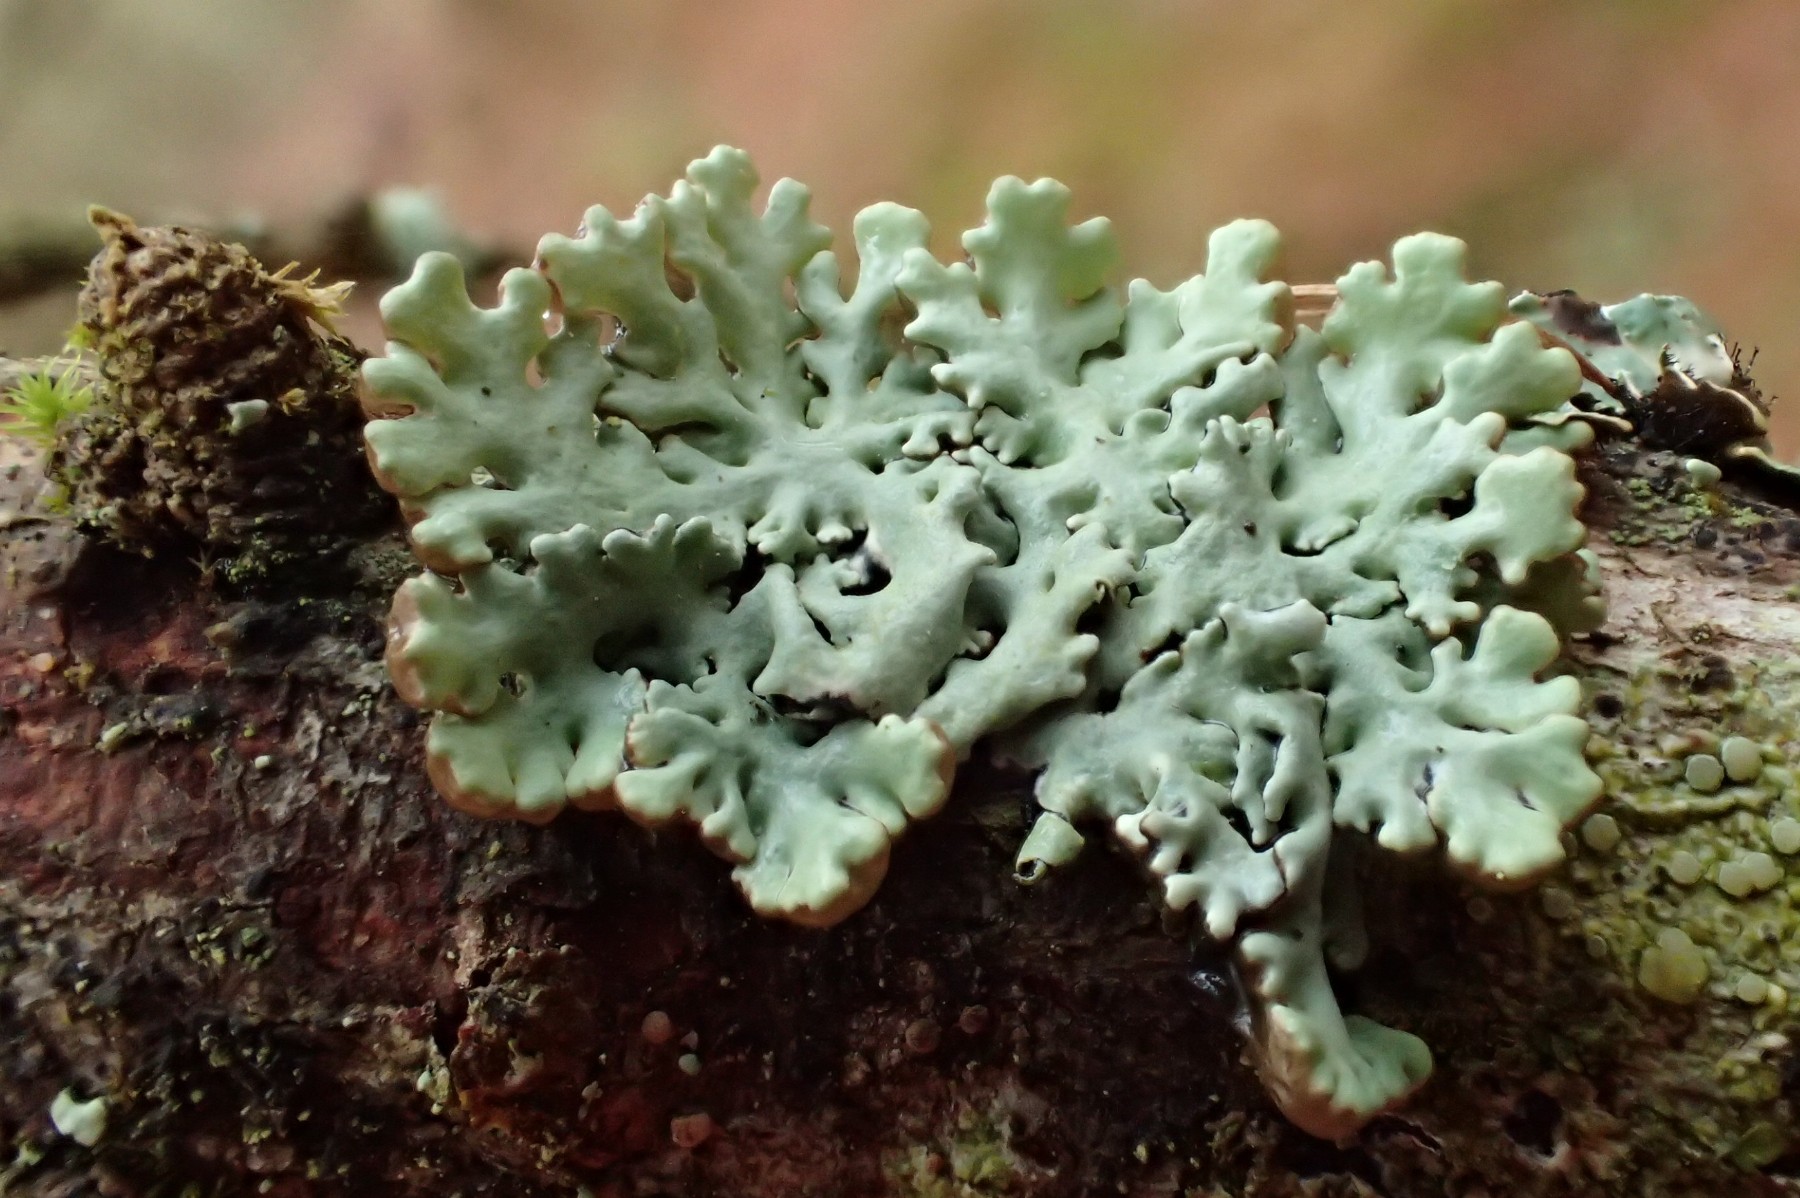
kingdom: Fungi
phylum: Ascomycota
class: Lecanoromycetes
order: Lecanorales
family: Parmeliaceae
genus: Hypogymnia
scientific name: Hypogymnia physodes
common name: almindelig kvistlav
